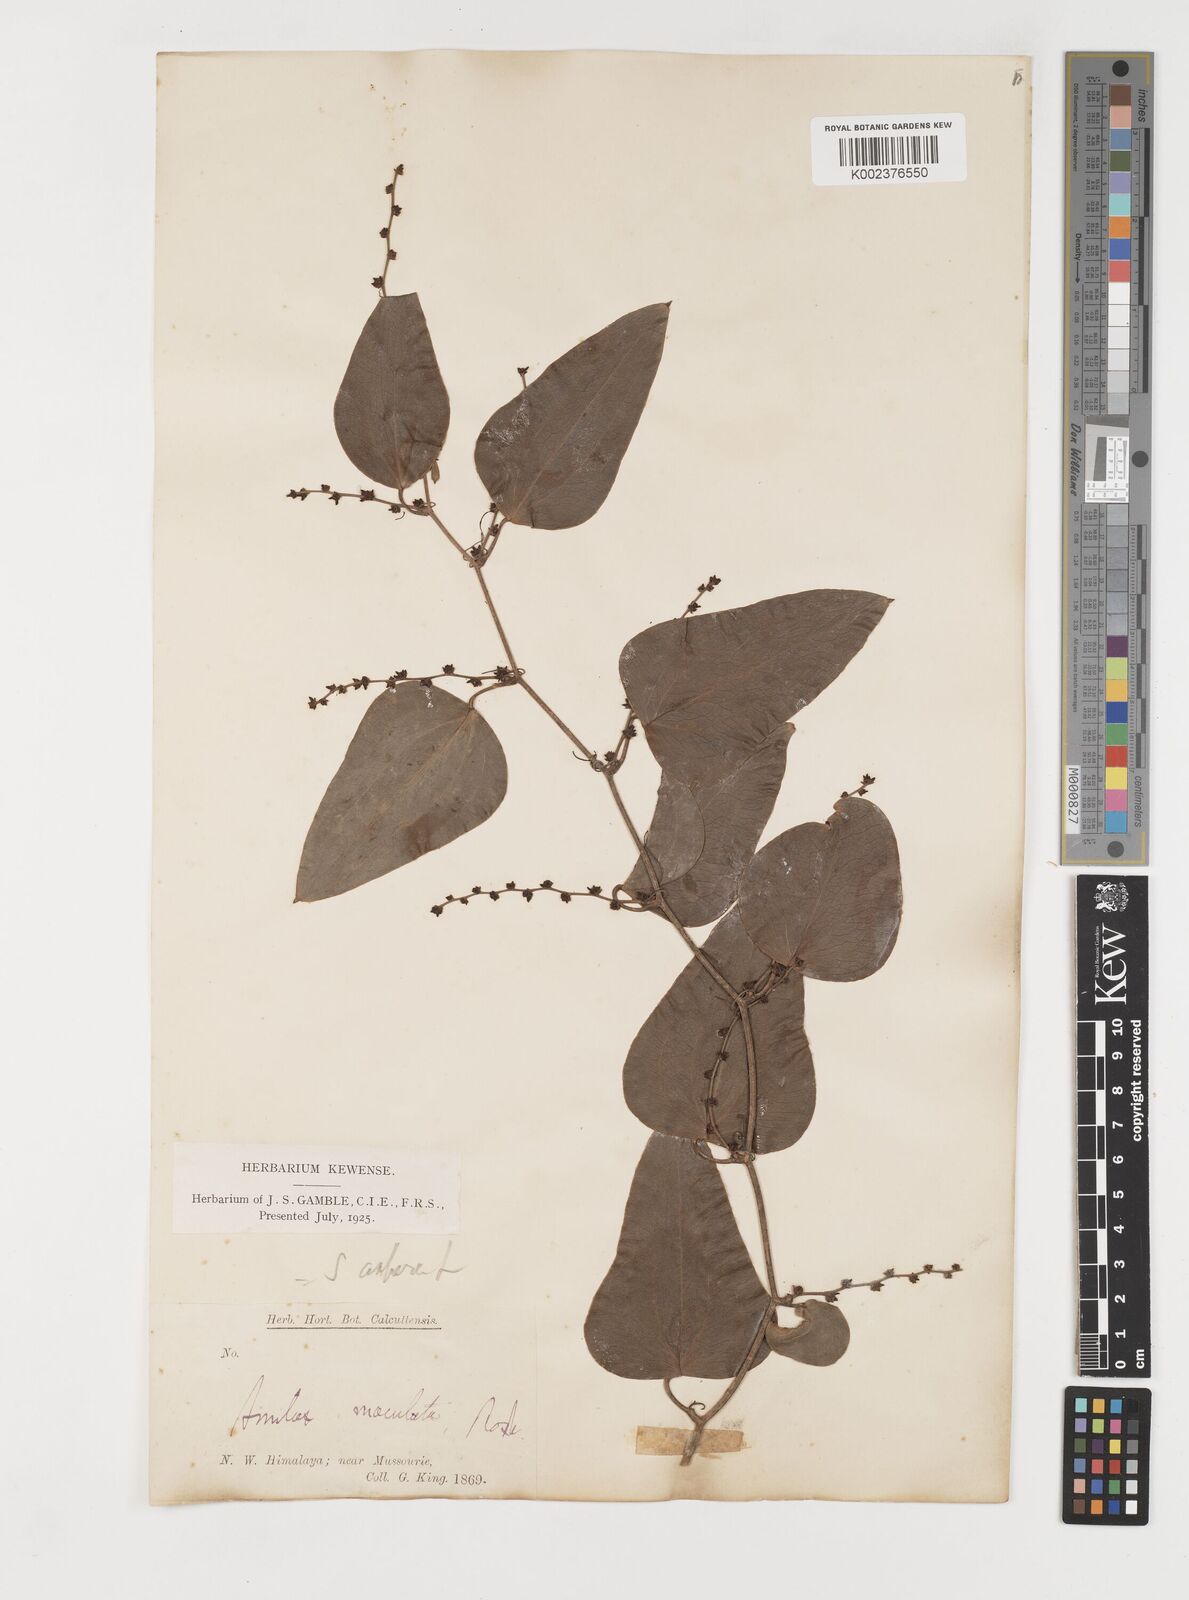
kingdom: Plantae
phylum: Tracheophyta
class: Liliopsida
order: Liliales
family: Smilacaceae
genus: Smilax
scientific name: Smilax aspera
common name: Common smilax
